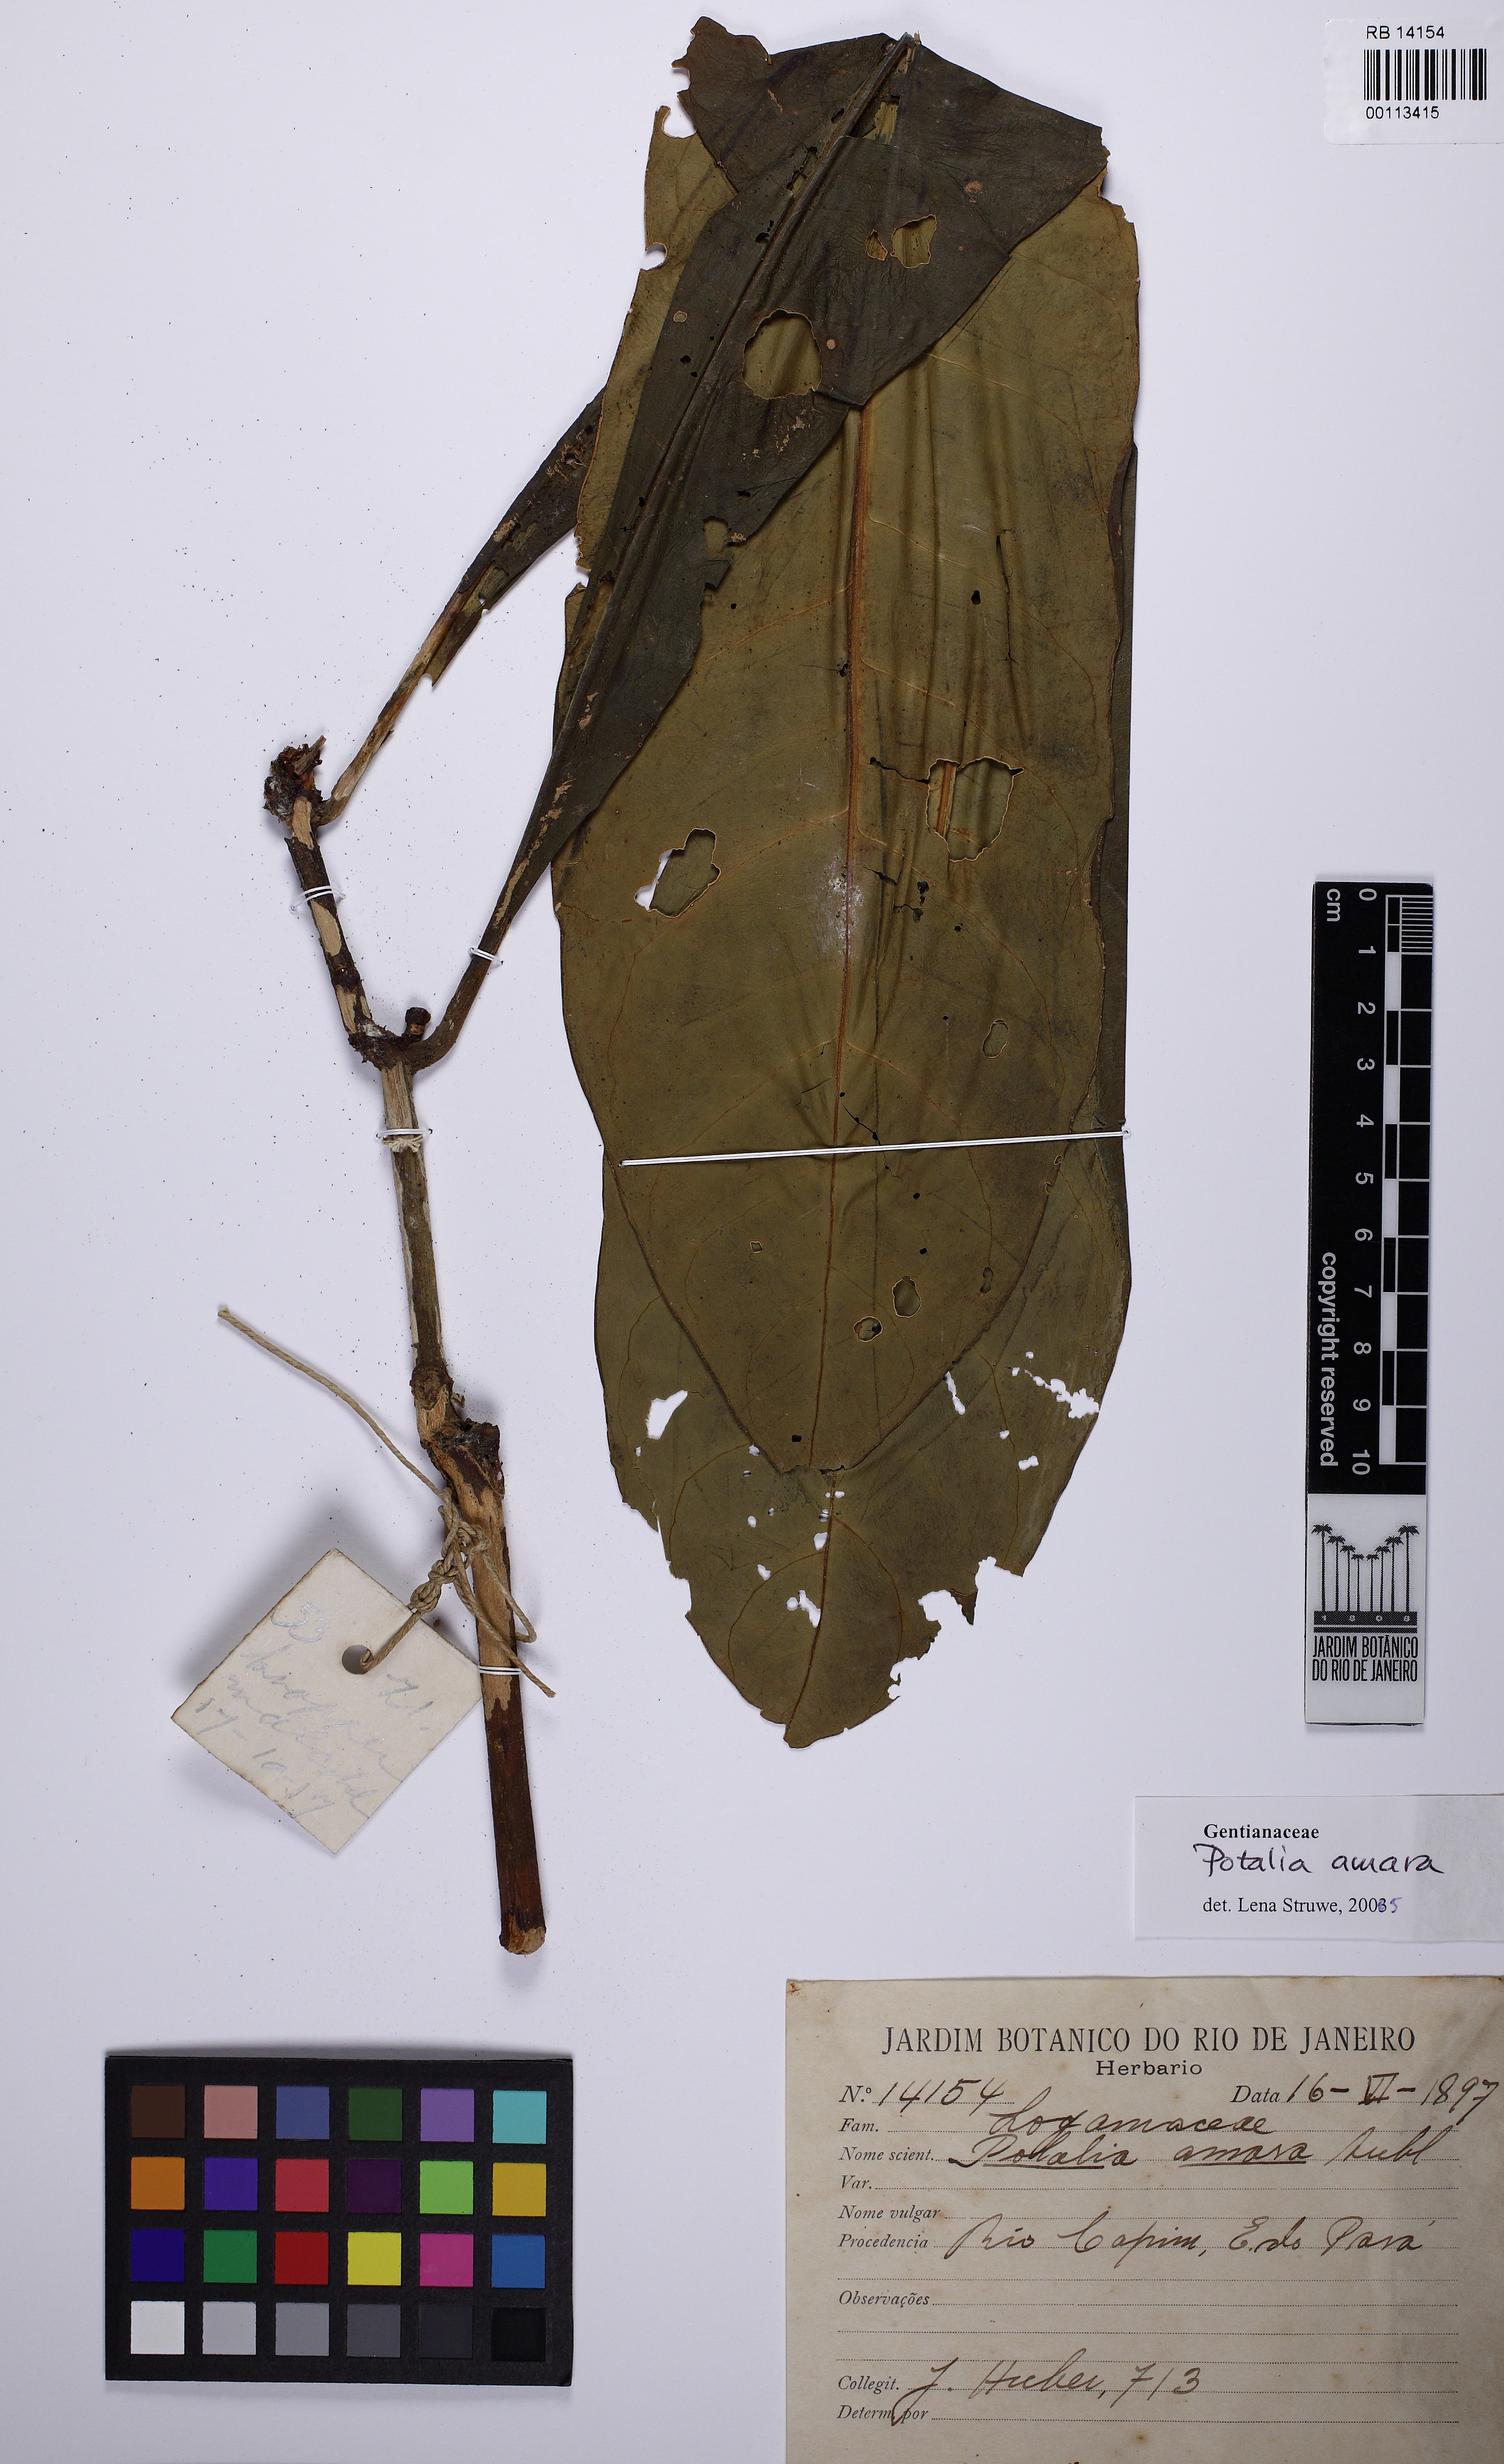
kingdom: Plantae
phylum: Tracheophyta
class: Magnoliopsida
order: Gentianales
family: Gentianaceae
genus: Potalia
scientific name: Potalia amara
